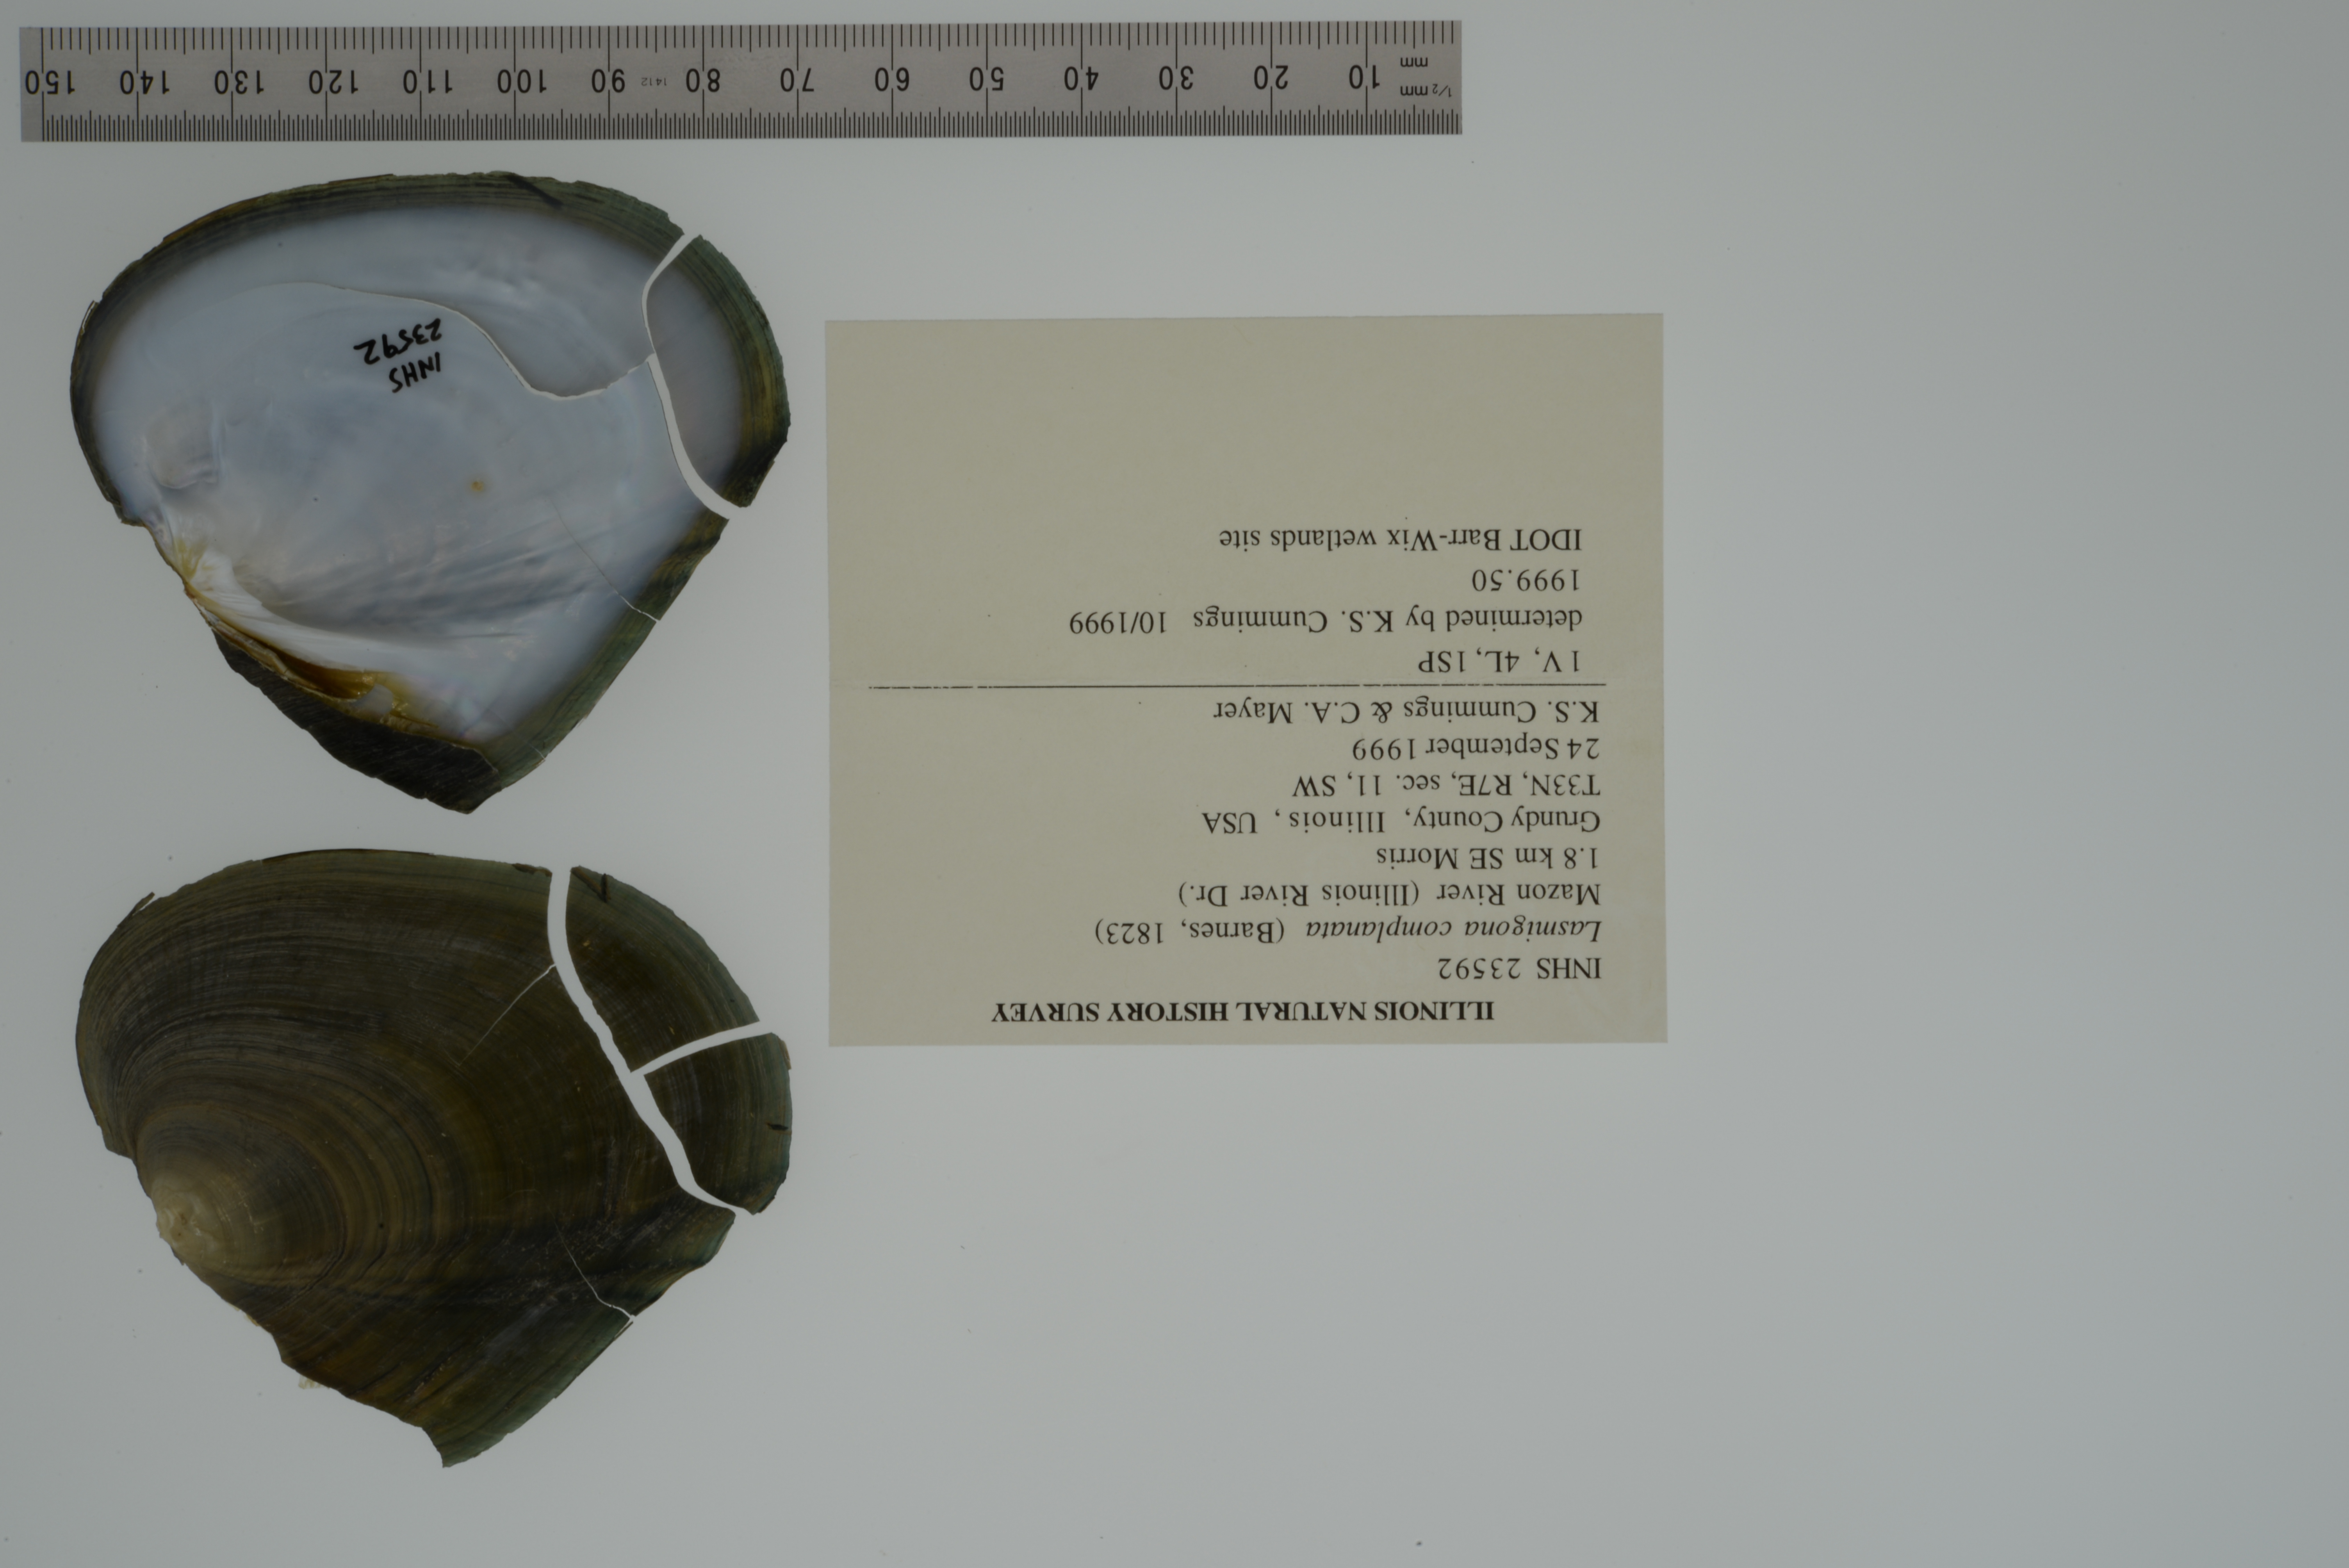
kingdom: Animalia
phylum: Mollusca
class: Bivalvia
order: Unionida
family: Unionidae
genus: Lasmigona
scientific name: Lasmigona complanata
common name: White heelsplitter
